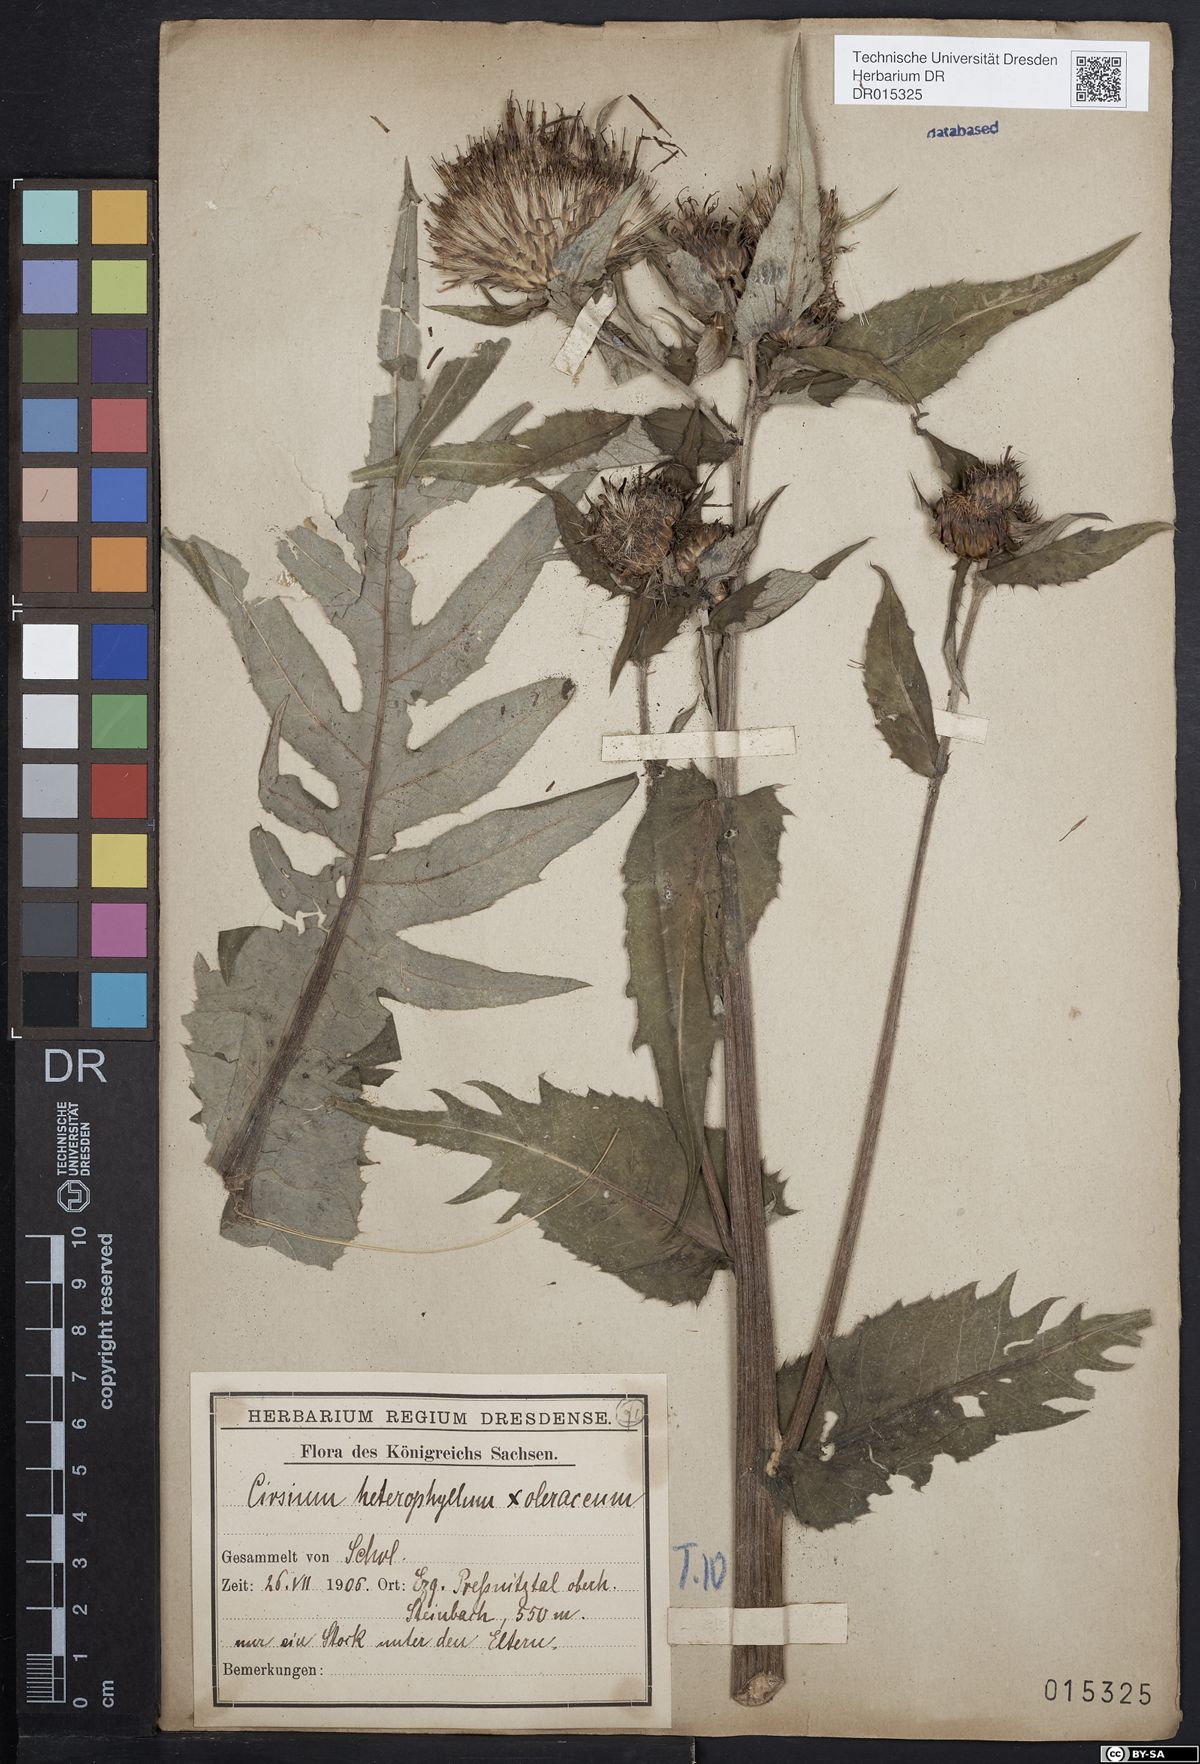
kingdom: Plantae
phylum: Tracheophyta
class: Magnoliopsida
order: Asterales
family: Asteraceae
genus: Cirsium
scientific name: Cirsium affine
